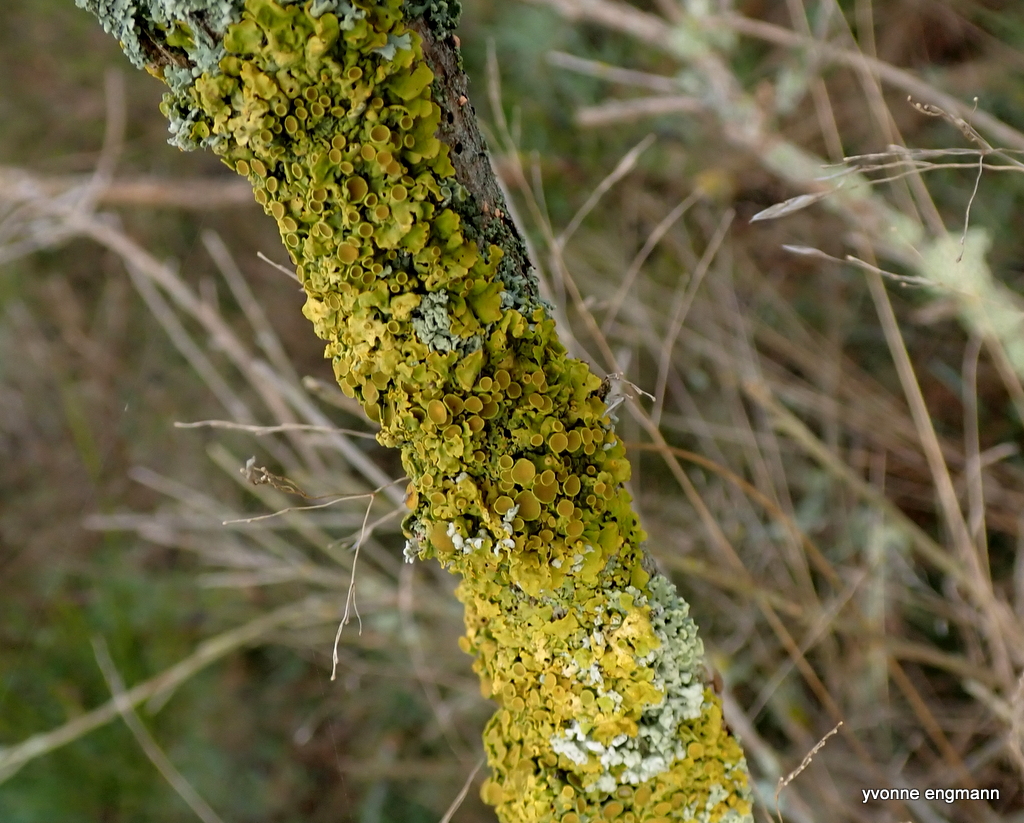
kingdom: Fungi
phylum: Ascomycota
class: Lecanoromycetes
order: Teloschistales
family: Teloschistaceae
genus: Xanthoria
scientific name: Xanthoria parietina
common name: almindelig væggelav
